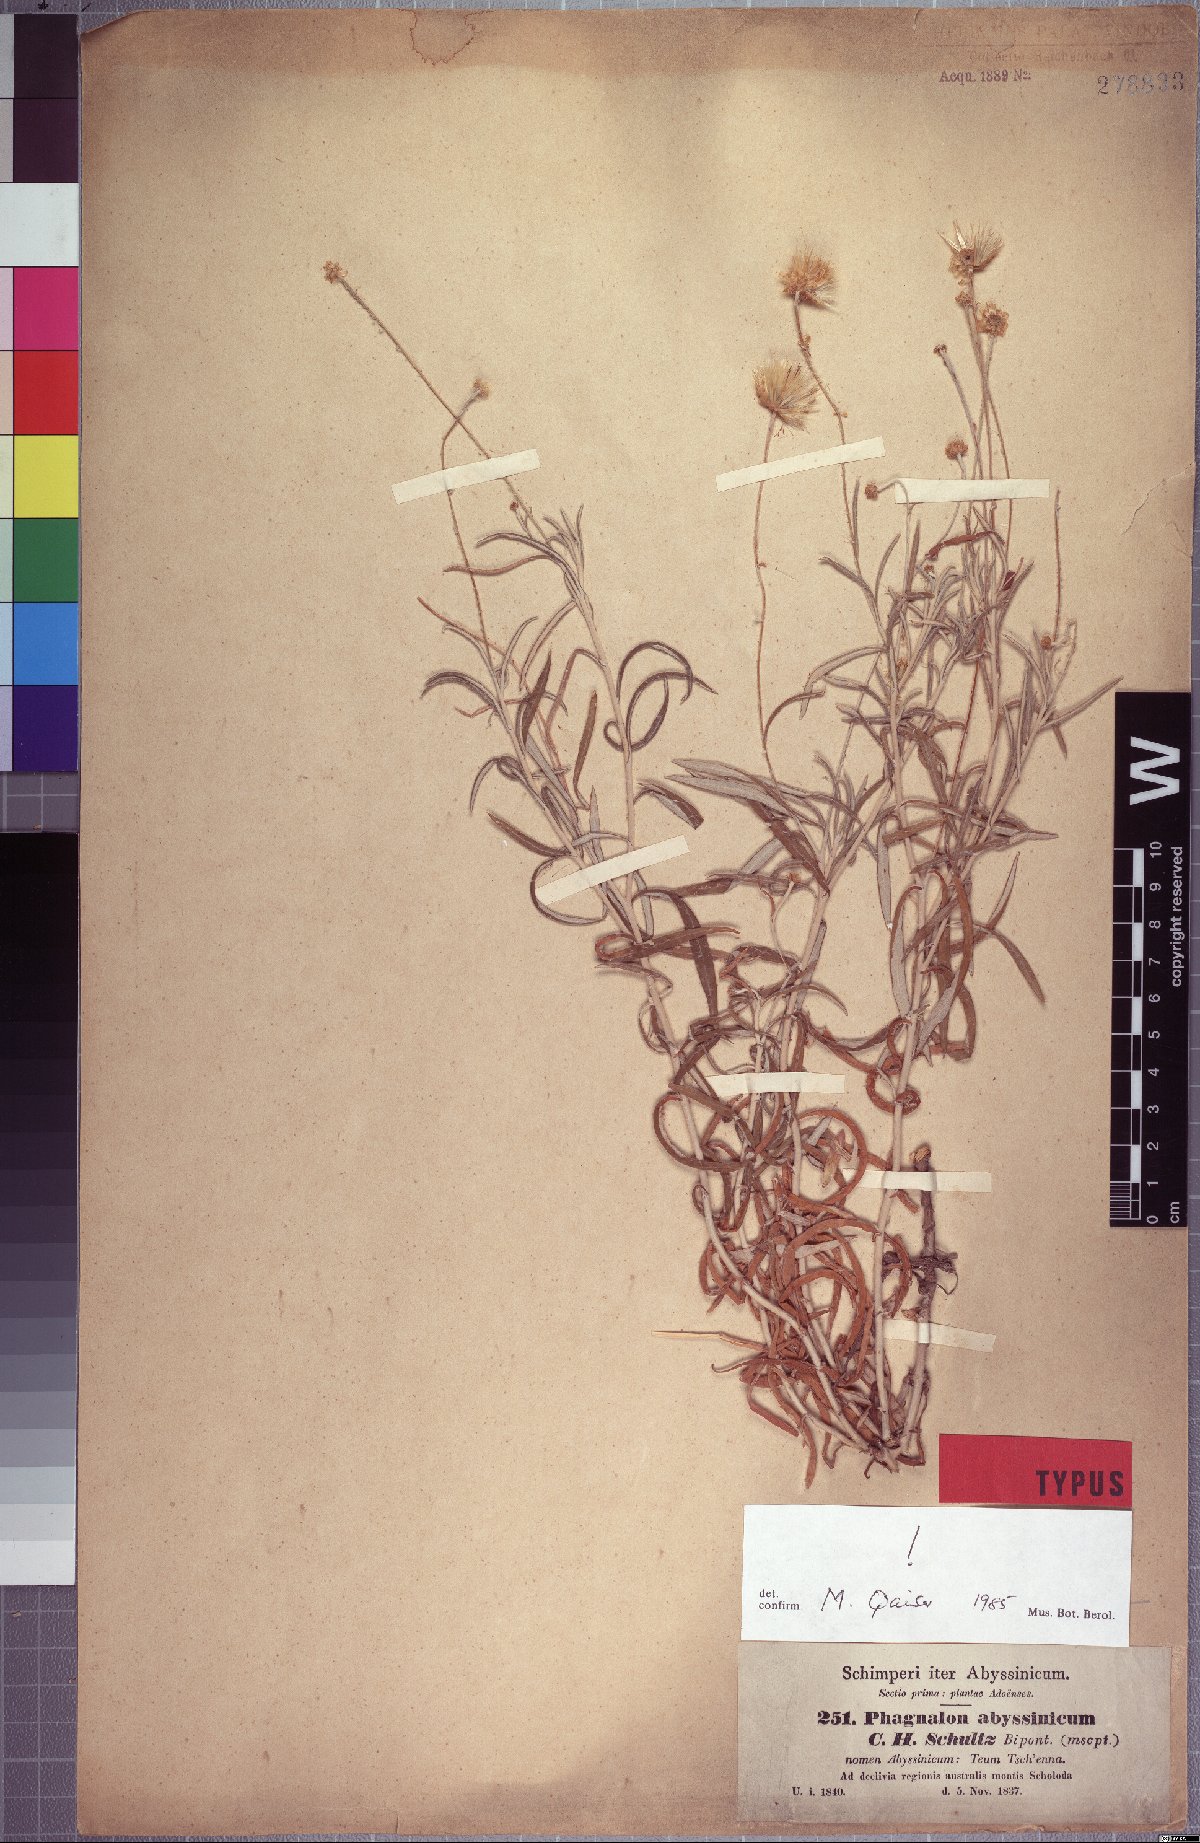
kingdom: Plantae
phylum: Tracheophyta
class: Magnoliopsida
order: Asterales
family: Asteraceae
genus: Phagnalon
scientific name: Phagnalon abyssinicum
